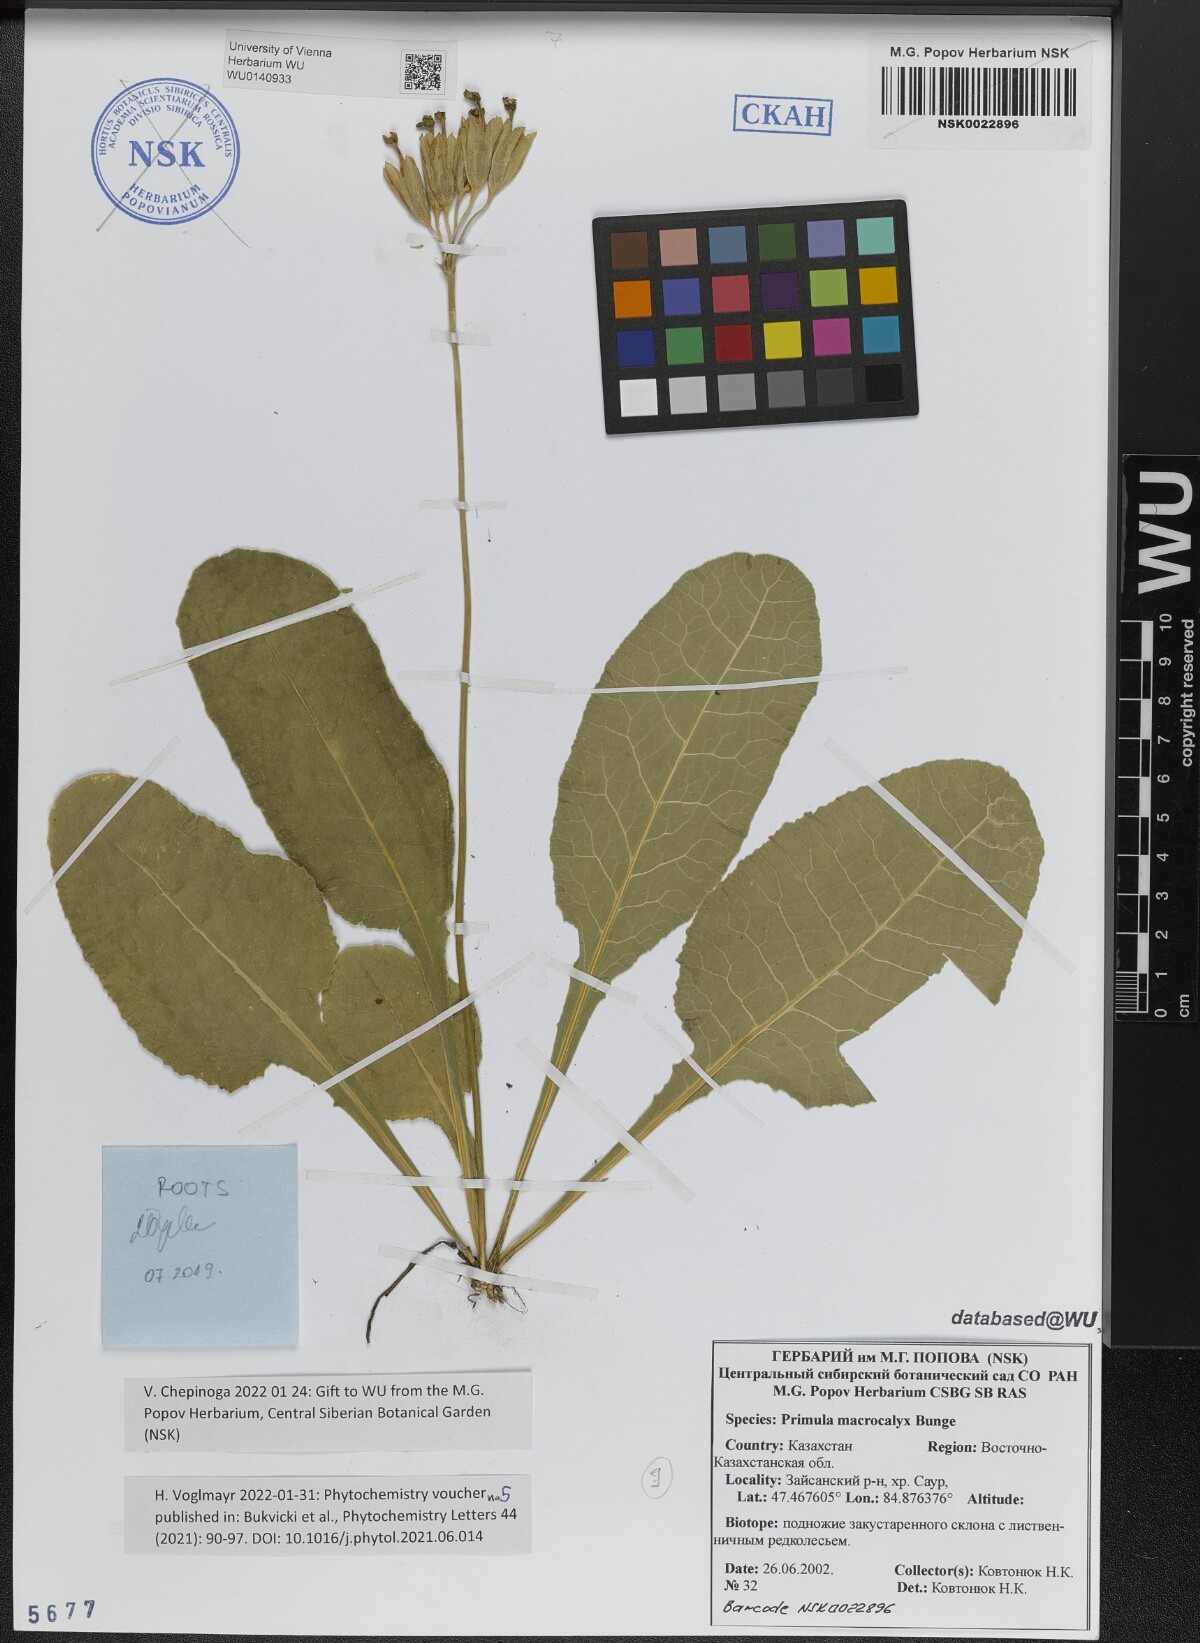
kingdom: Plantae
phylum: Tracheophyta
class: Magnoliopsida
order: Ericales
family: Primulaceae
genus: Primula
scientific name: Primula veris
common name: Cowslip
